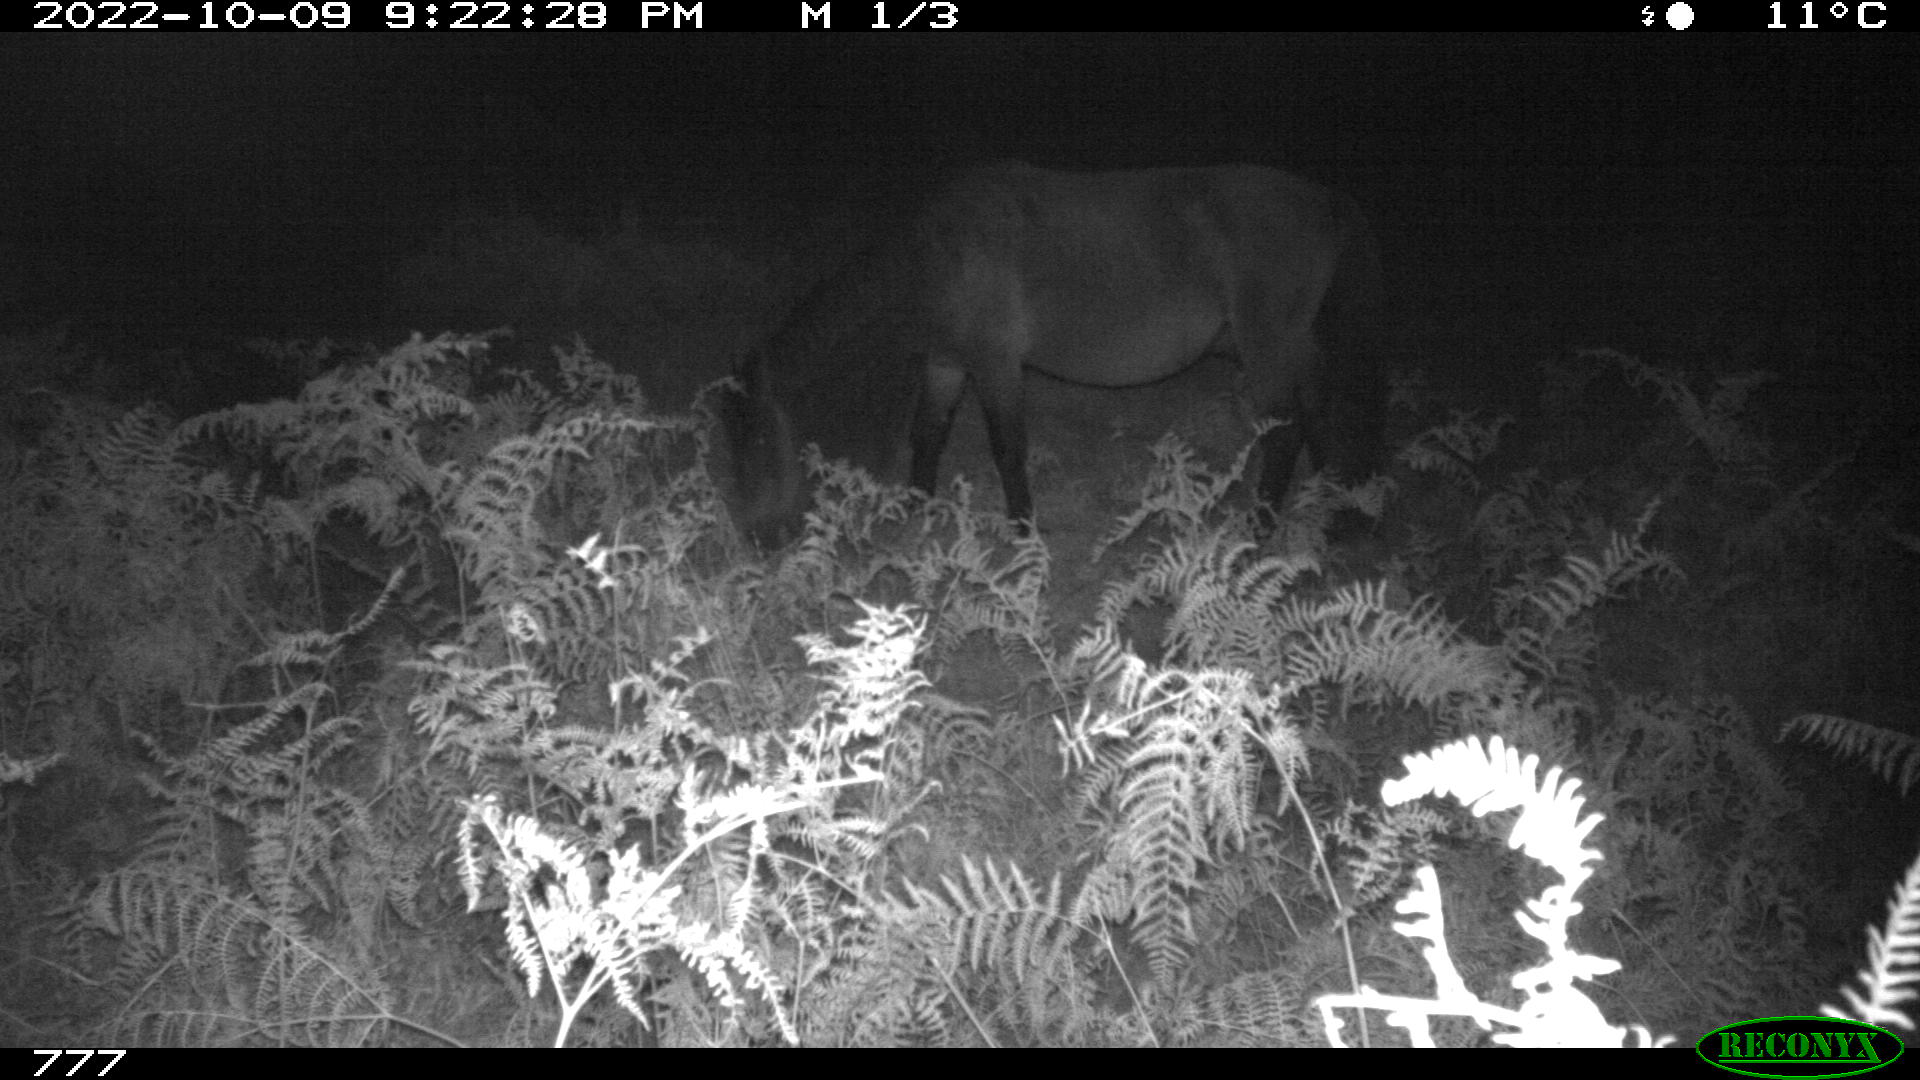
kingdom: Animalia
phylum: Chordata
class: Mammalia
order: Artiodactyla
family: Bovidae
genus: Bos
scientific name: Bos taurus
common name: Domesticated cattle
